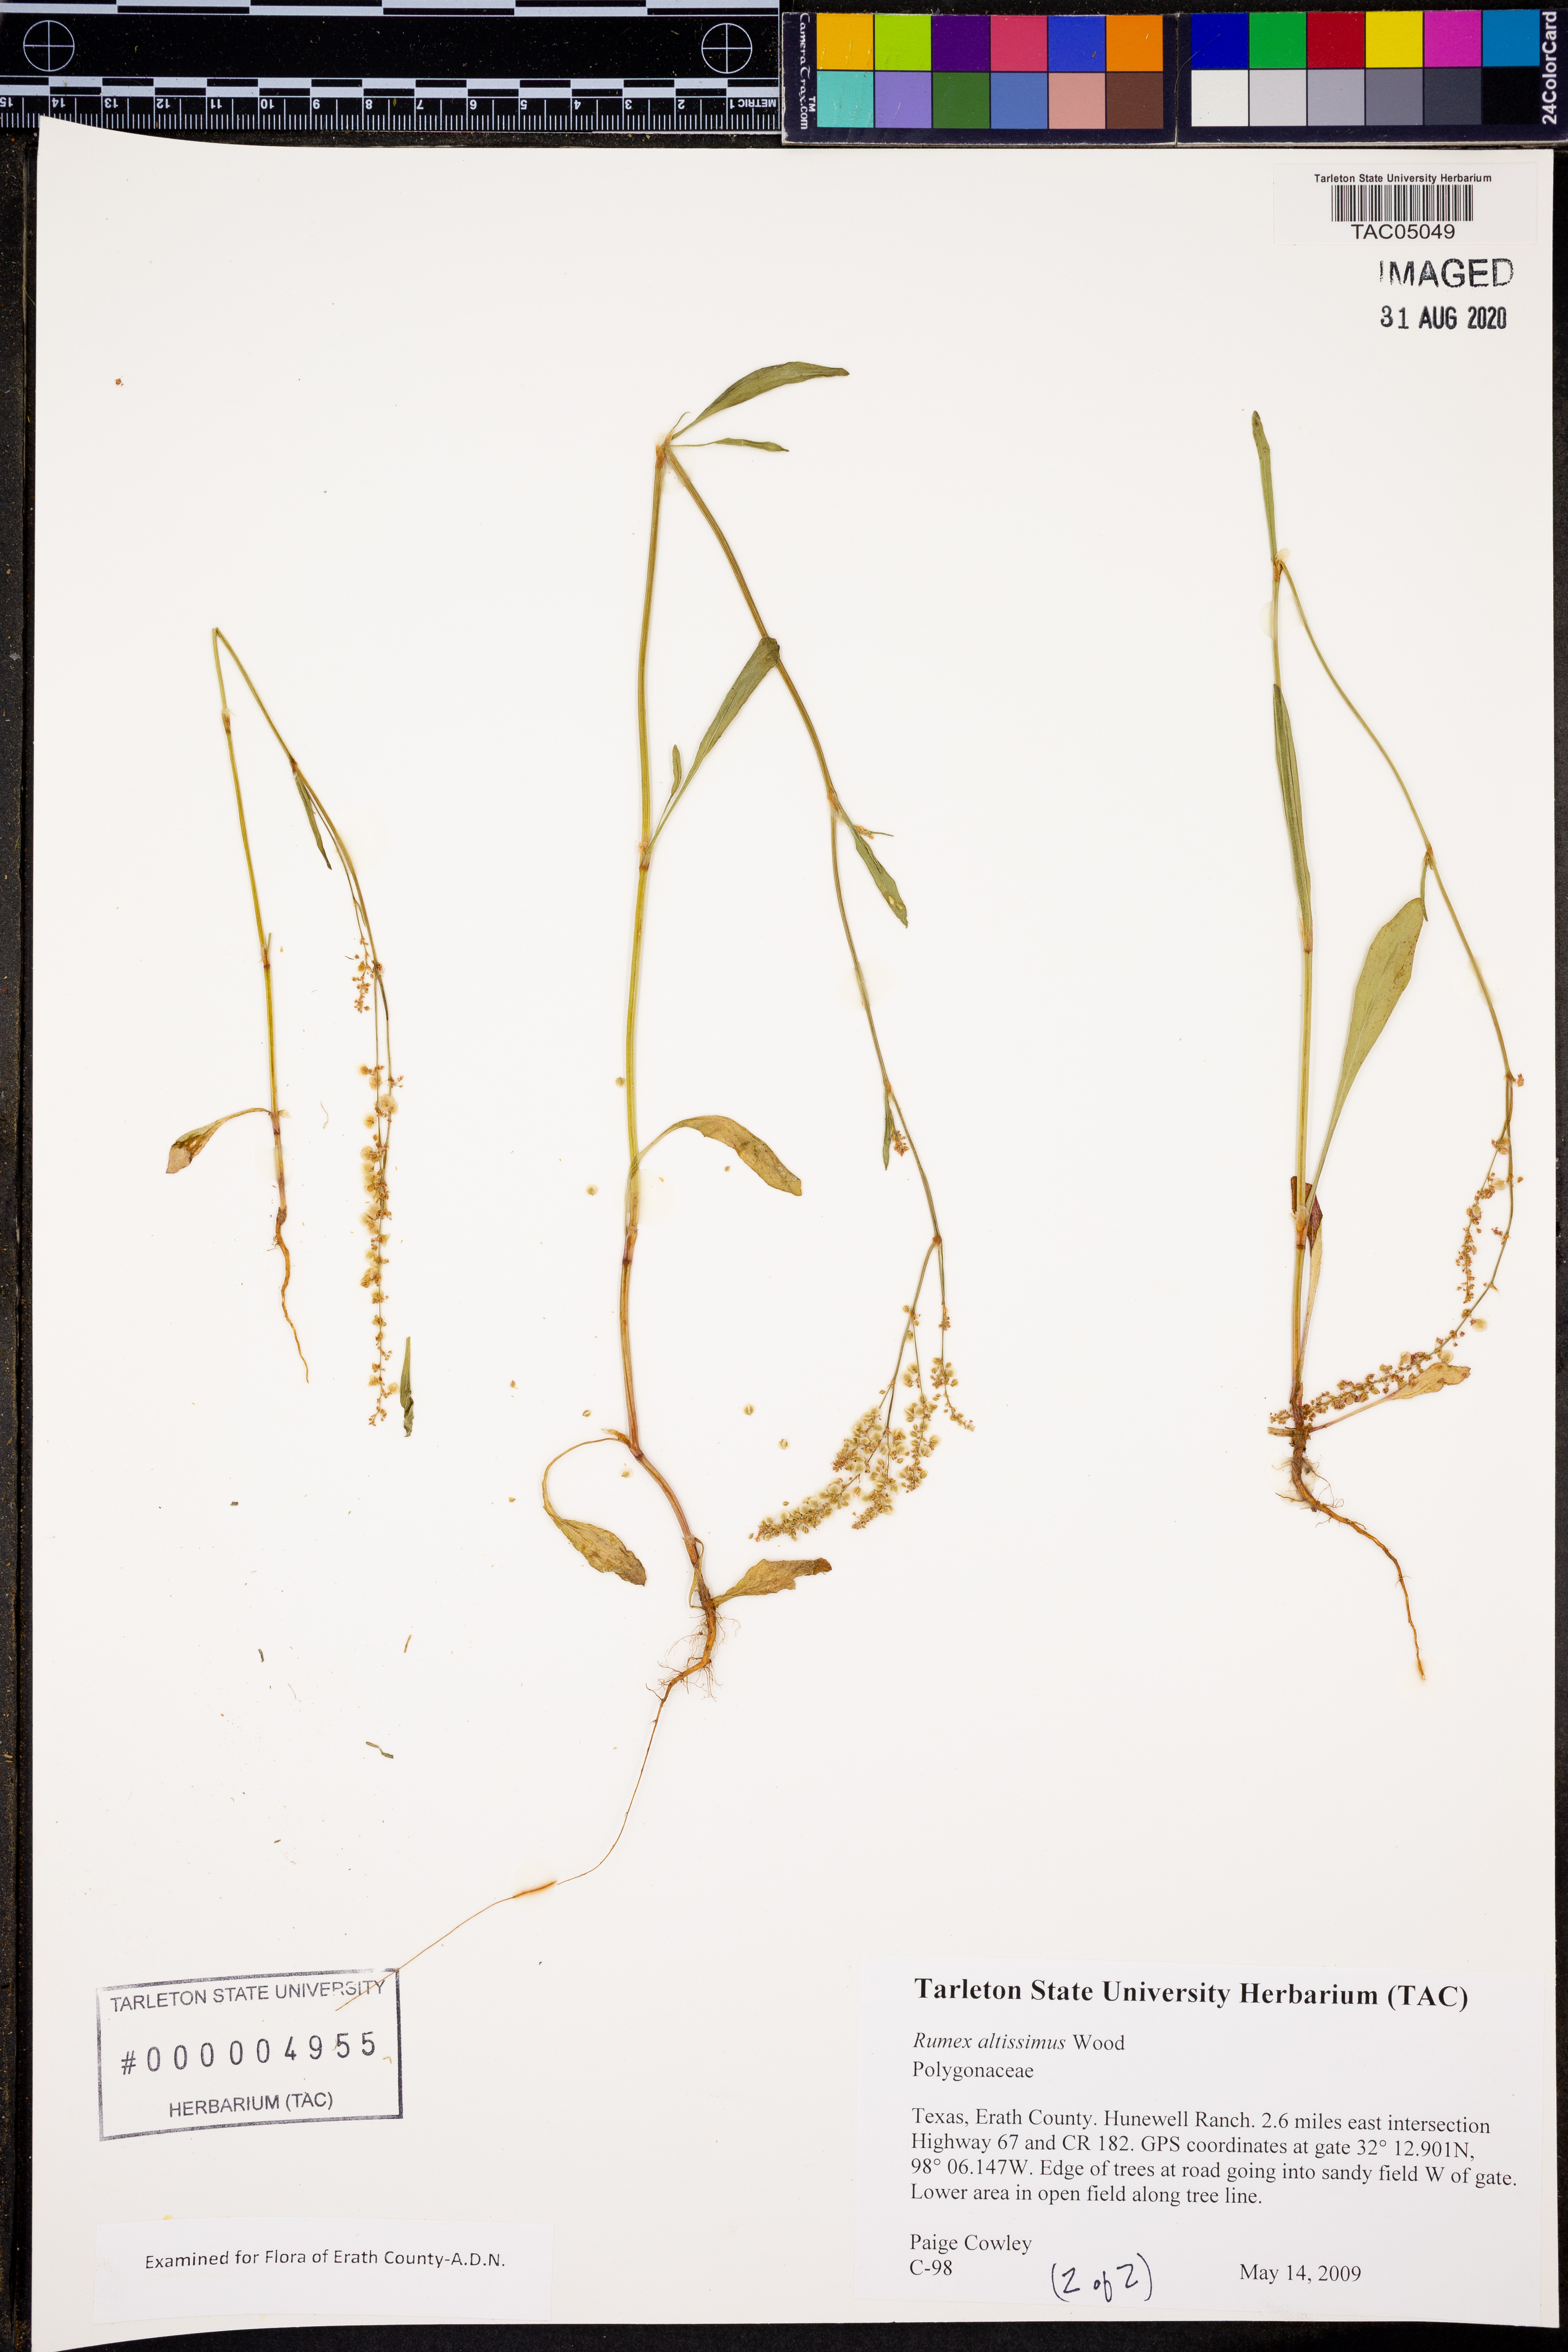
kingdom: Plantae
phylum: Tracheophyta
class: Magnoliopsida
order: Caryophyllales
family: Polygonaceae
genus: Rumex
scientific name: Rumex altissimus
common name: Smooth dock
